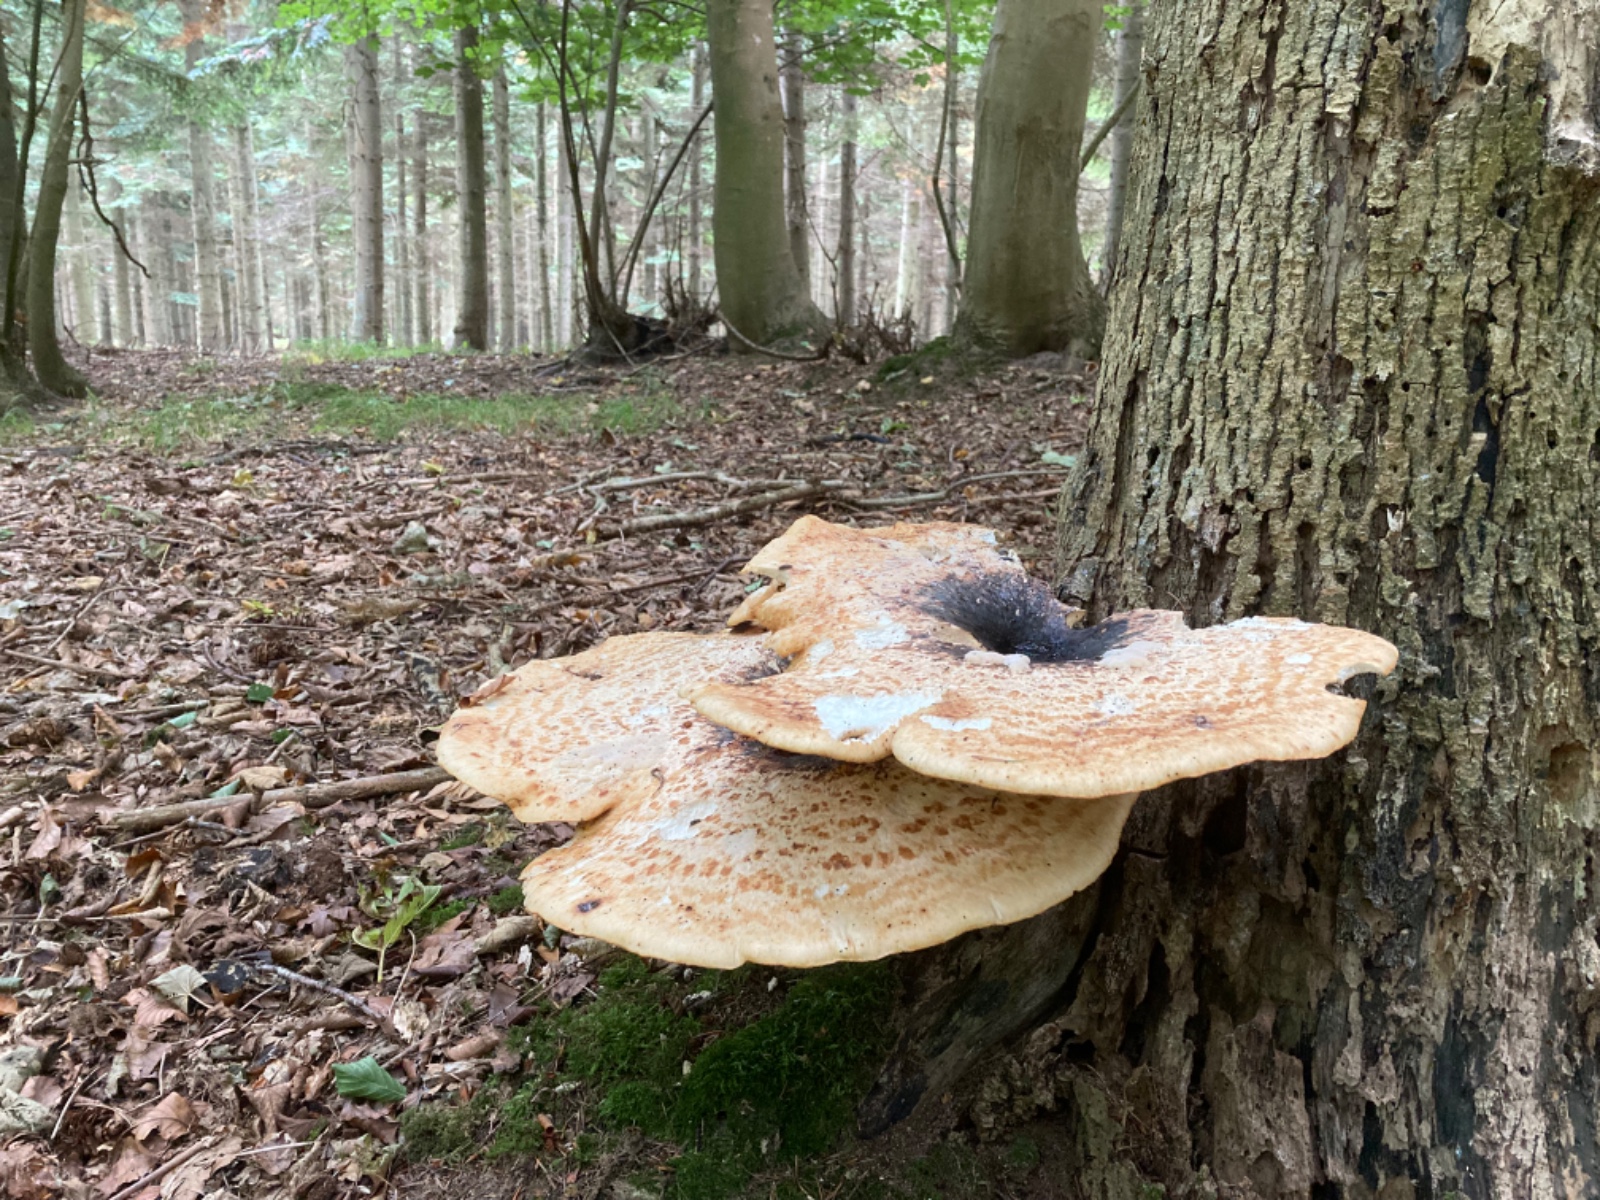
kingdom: Fungi
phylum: Basidiomycota
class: Agaricomycetes
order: Polyporales
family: Polyporaceae
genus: Cerioporus
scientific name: Cerioporus squamosus
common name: skællet stilkporesvamp
